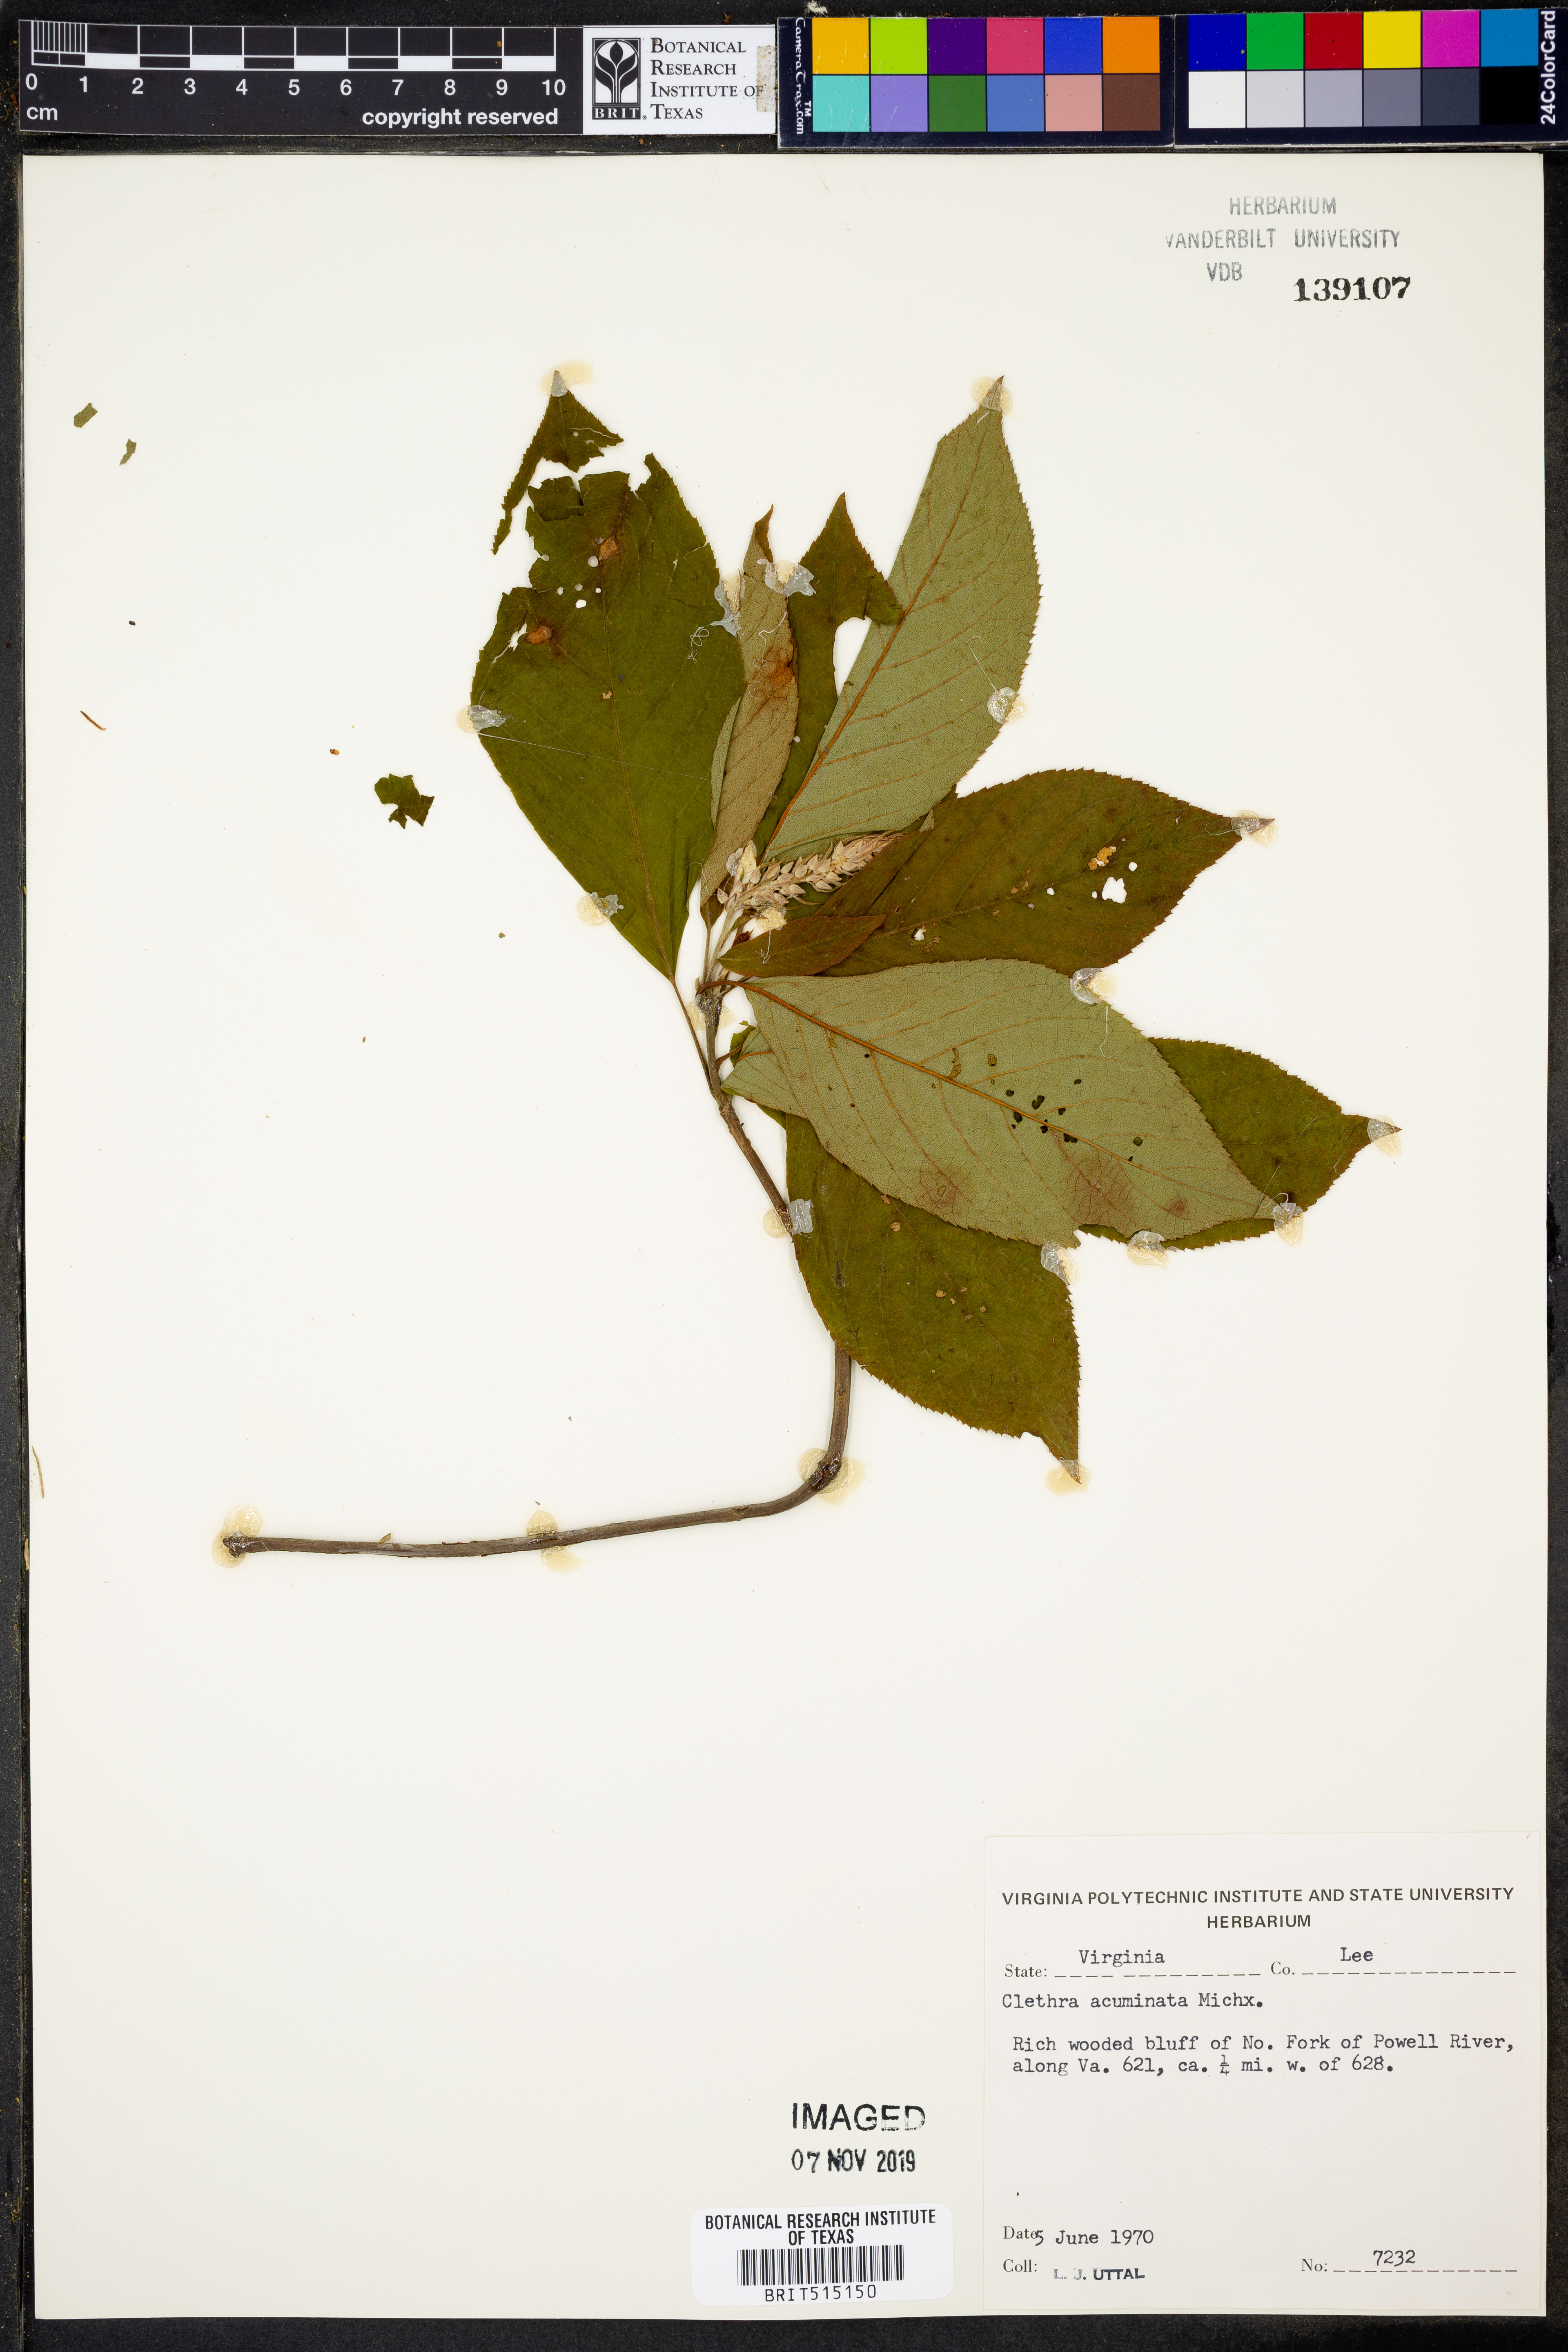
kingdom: Plantae
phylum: Tracheophyta
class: Magnoliopsida
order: Ericales
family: Clethraceae
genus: Clethra
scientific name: Clethra acuminata
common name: Mountain sweet pepperbush
